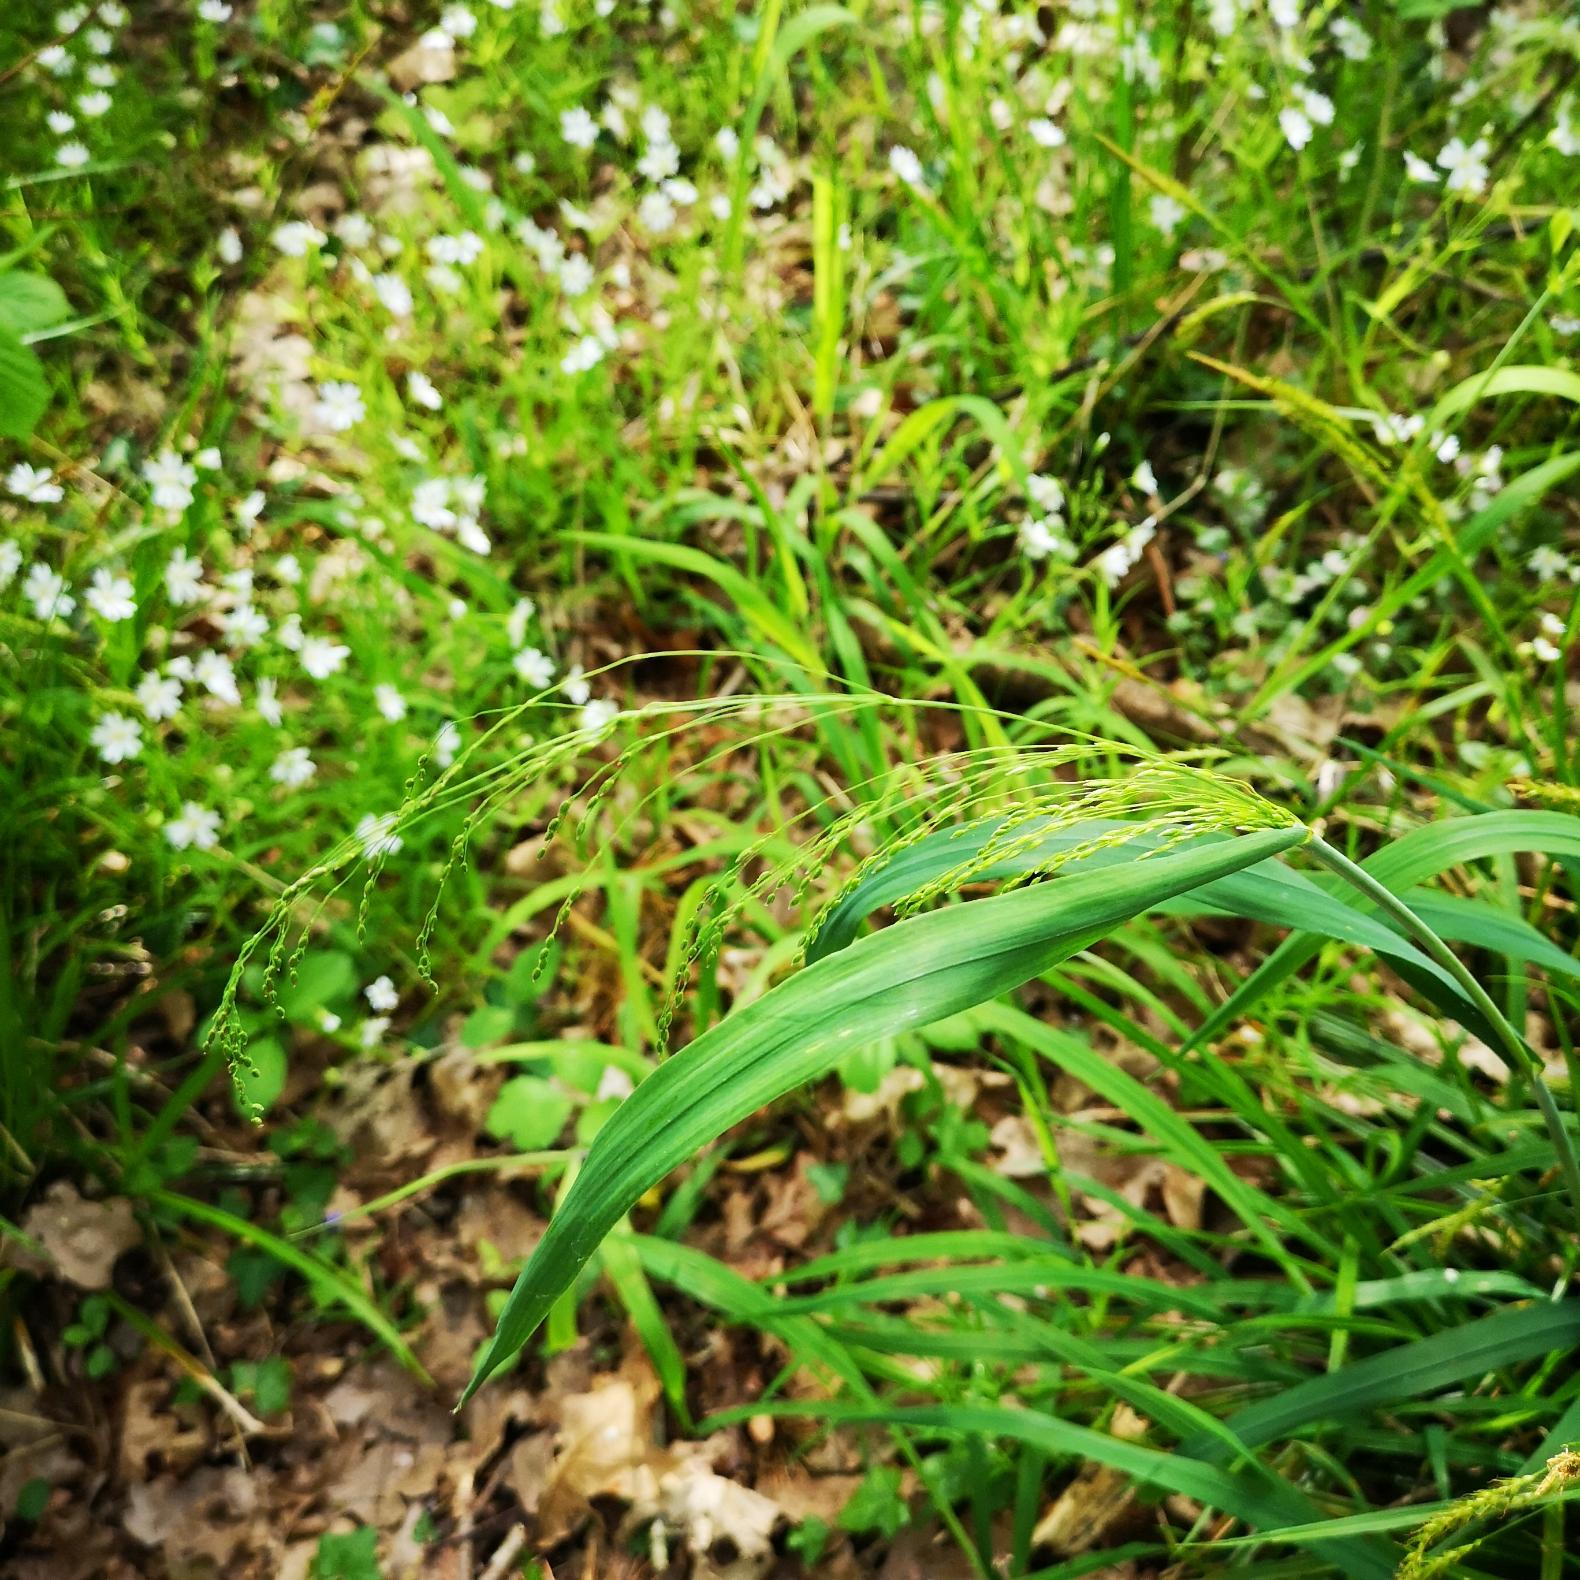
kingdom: Plantae
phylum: Tracheophyta
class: Liliopsida
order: Poales
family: Poaceae
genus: Milium
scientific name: Milium effusum
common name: Miliegræs
